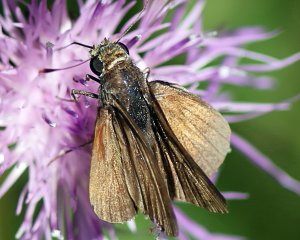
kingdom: Animalia
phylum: Arthropoda
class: Insecta
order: Lepidoptera
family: Hesperiidae
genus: Euphyes
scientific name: Euphyes vestris
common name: Dun Skipper
